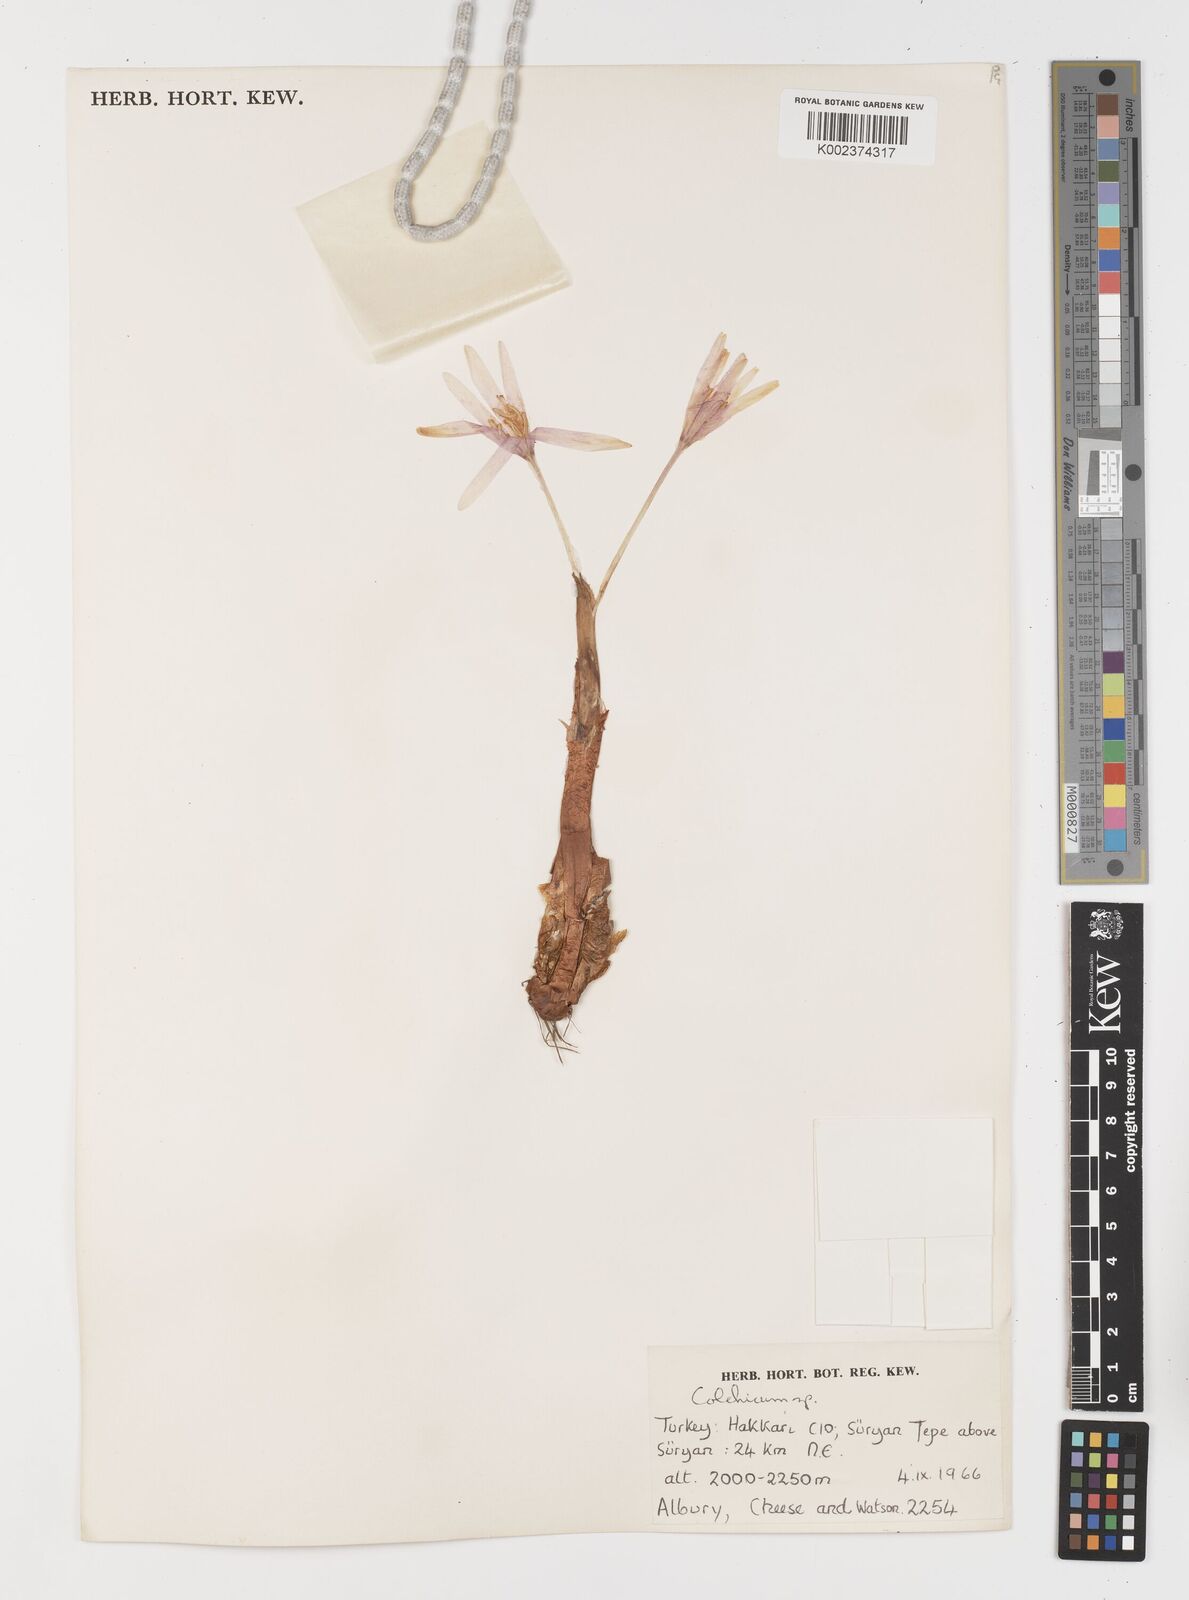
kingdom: Plantae
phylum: Tracheophyta
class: Liliopsida
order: Liliales
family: Colchicaceae
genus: Colchicum
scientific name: Colchicum
